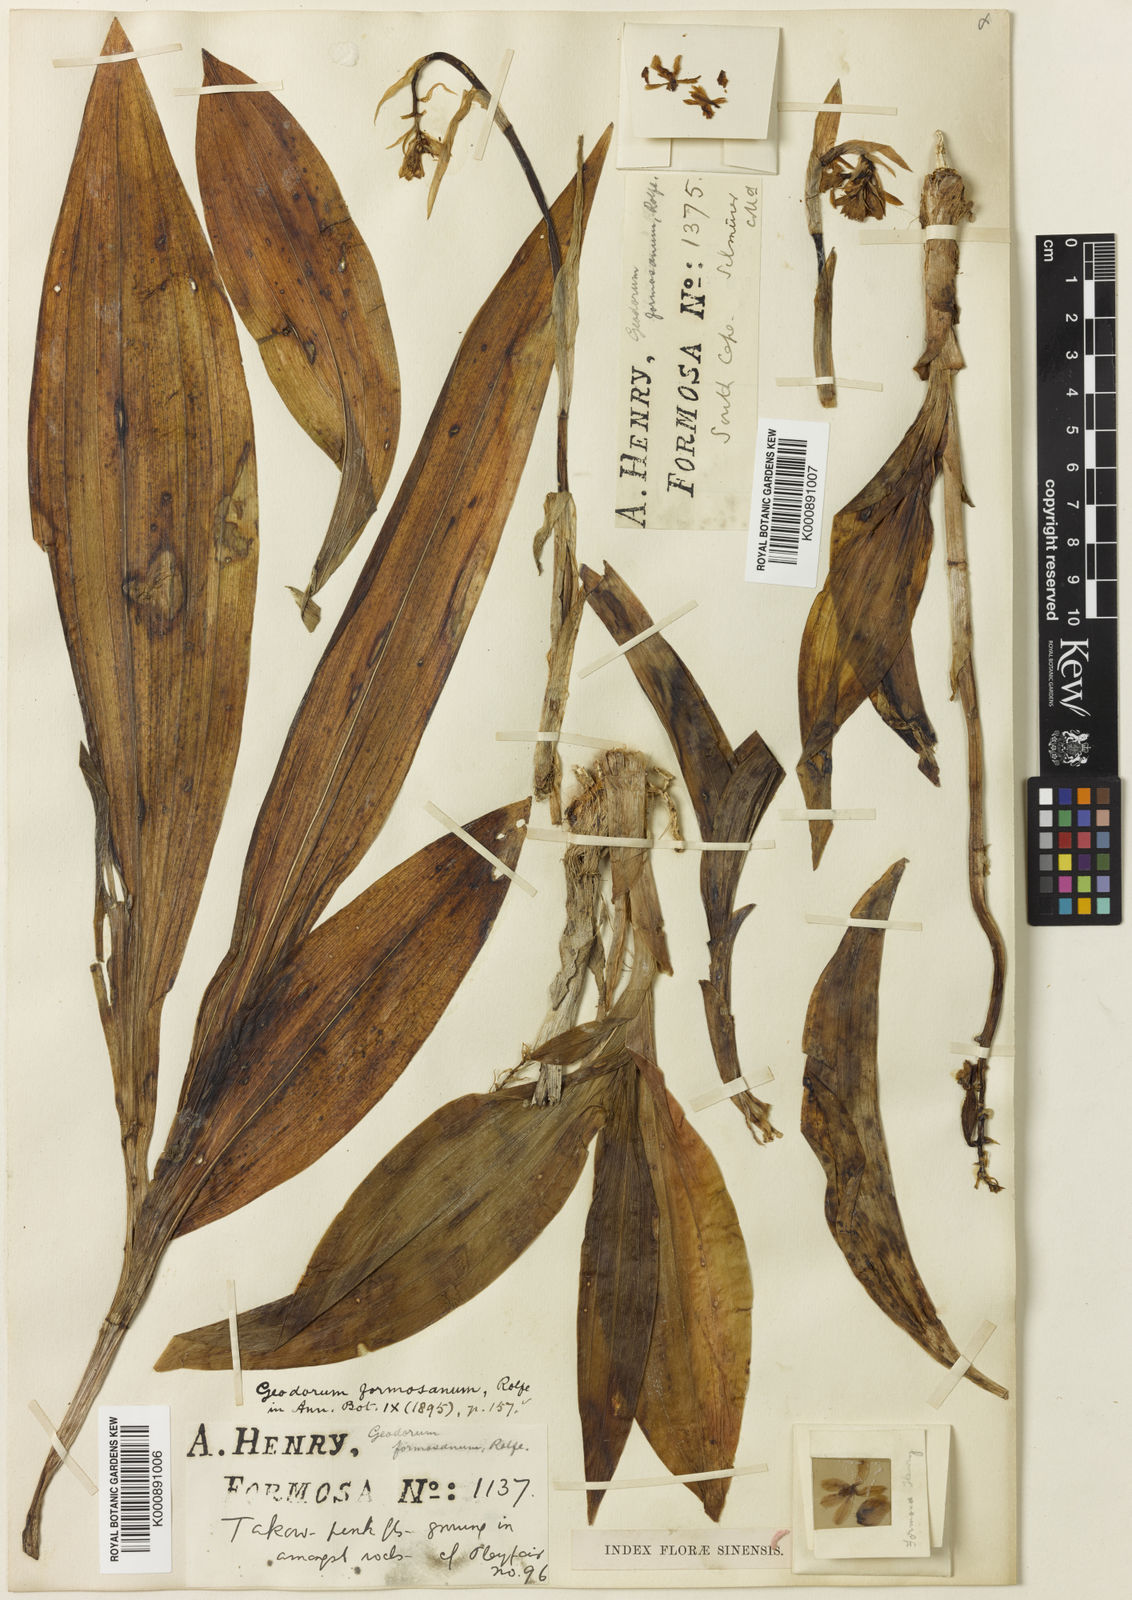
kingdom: Plantae
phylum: Tracheophyta
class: Liliopsida
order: Asparagales
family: Orchidaceae
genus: Eulophia
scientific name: Eulophia cernua
